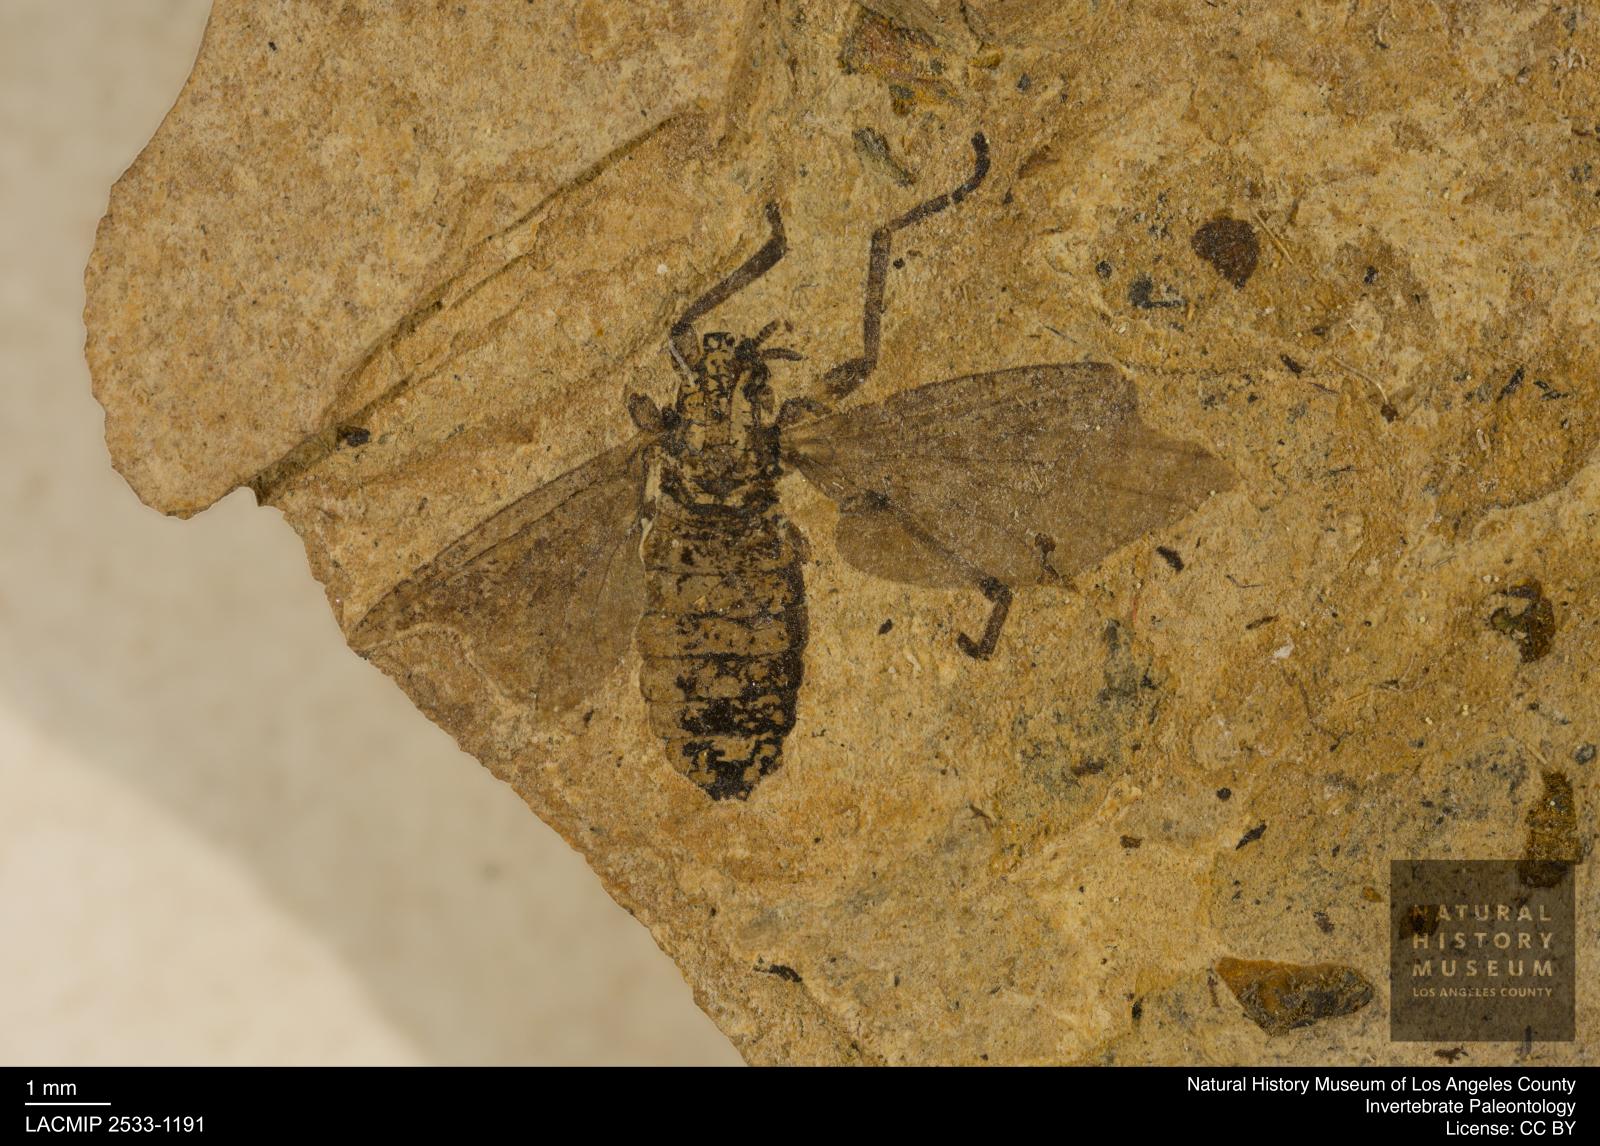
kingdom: Animalia
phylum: Arthropoda
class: Insecta
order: Diptera
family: Bibionidae
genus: Plecia
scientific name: Plecia stygia
